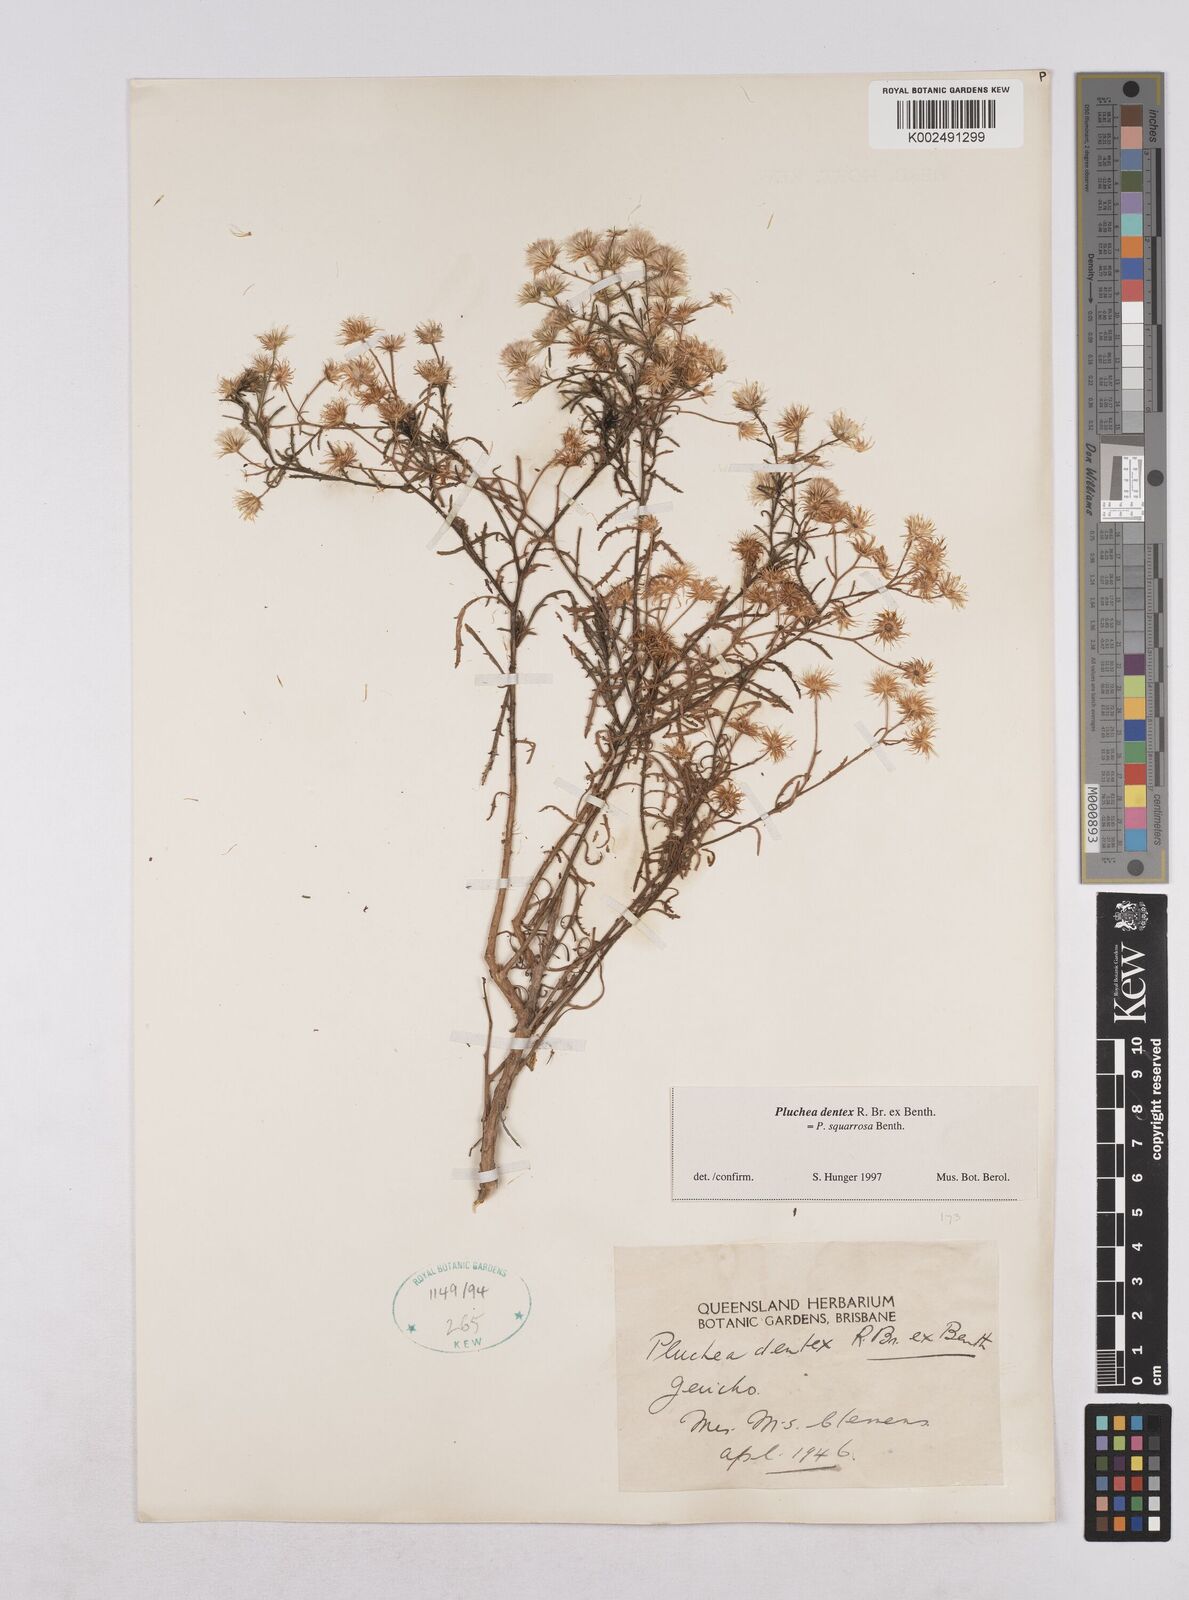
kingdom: Plantae
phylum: Tracheophyta
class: Magnoliopsida
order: Asterales
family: Asteraceae
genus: Pluchea
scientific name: Pluchea dentex
